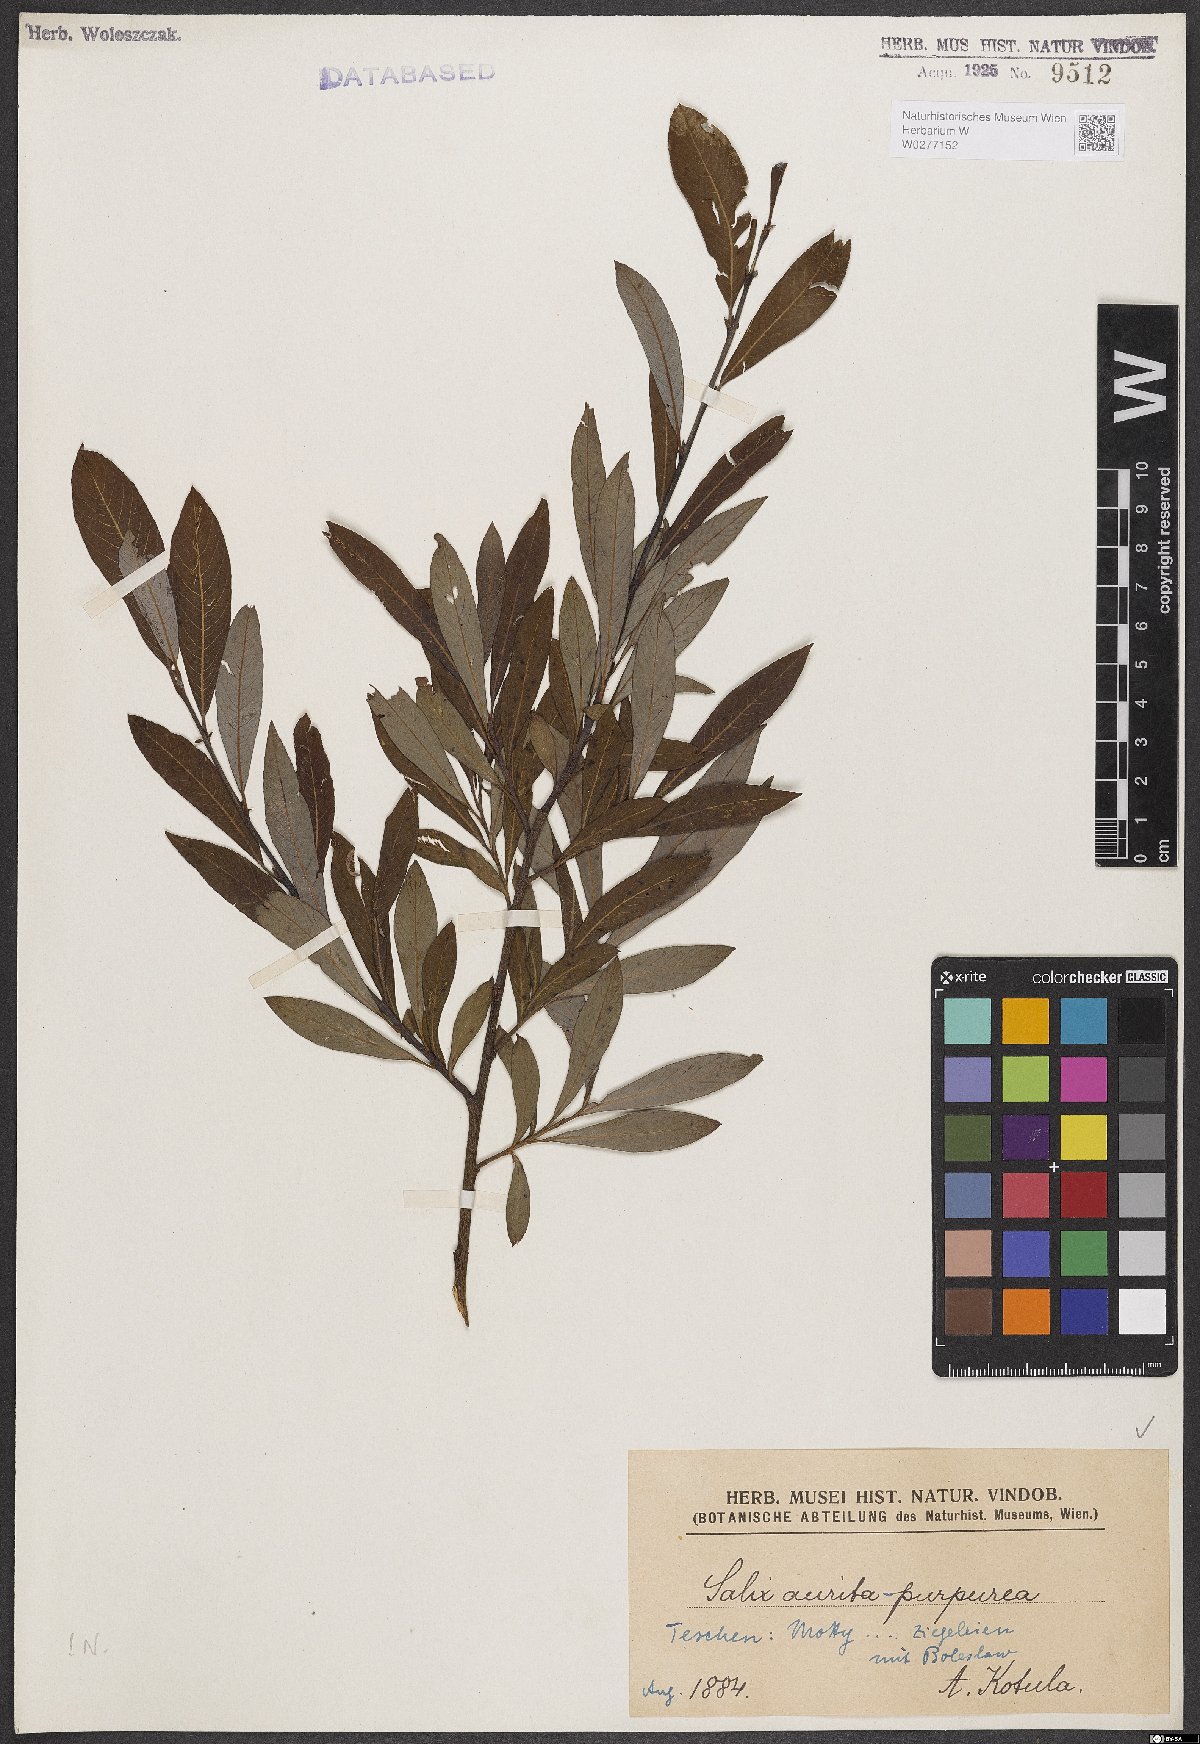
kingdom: Plantae
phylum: Tracheophyta
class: Magnoliopsida
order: Malpighiales
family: Salicaceae
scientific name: Salicaceae
